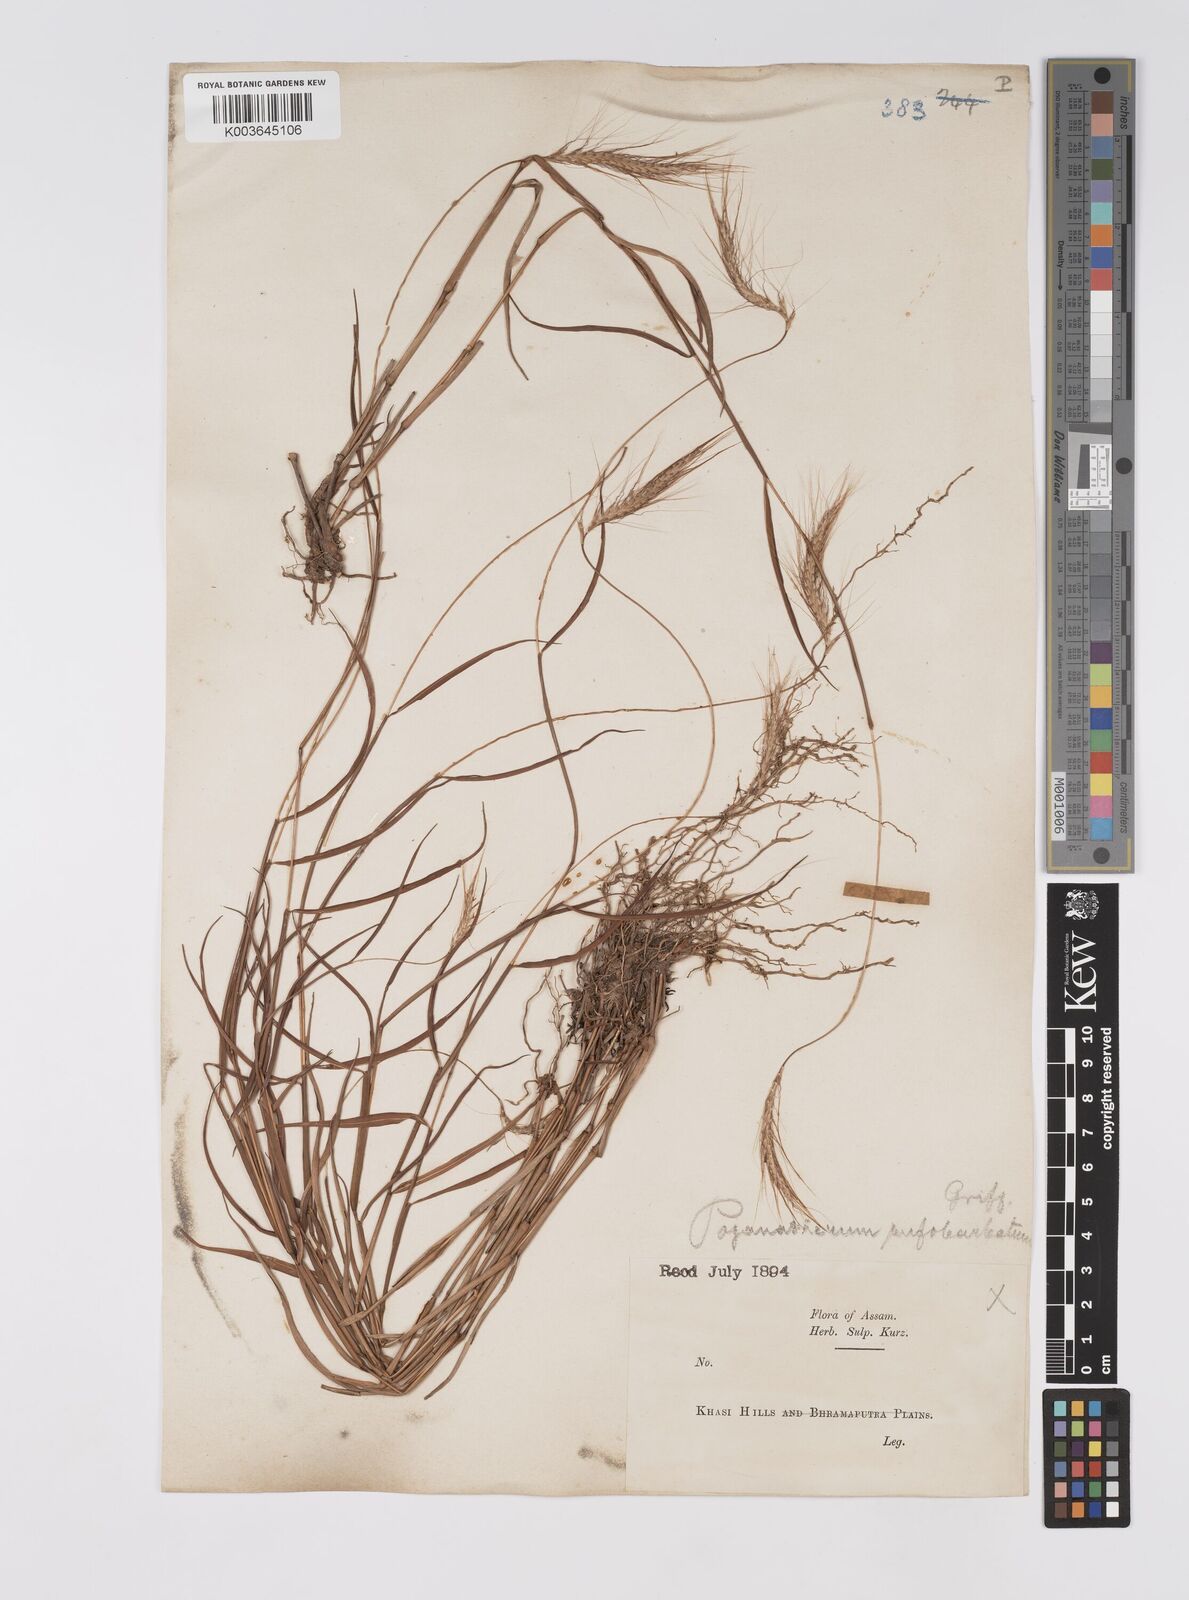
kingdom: Plantae
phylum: Tracheophyta
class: Liliopsida
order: Poales
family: Poaceae
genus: Pogonatherum
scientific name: Pogonatherum rufobarbatum
